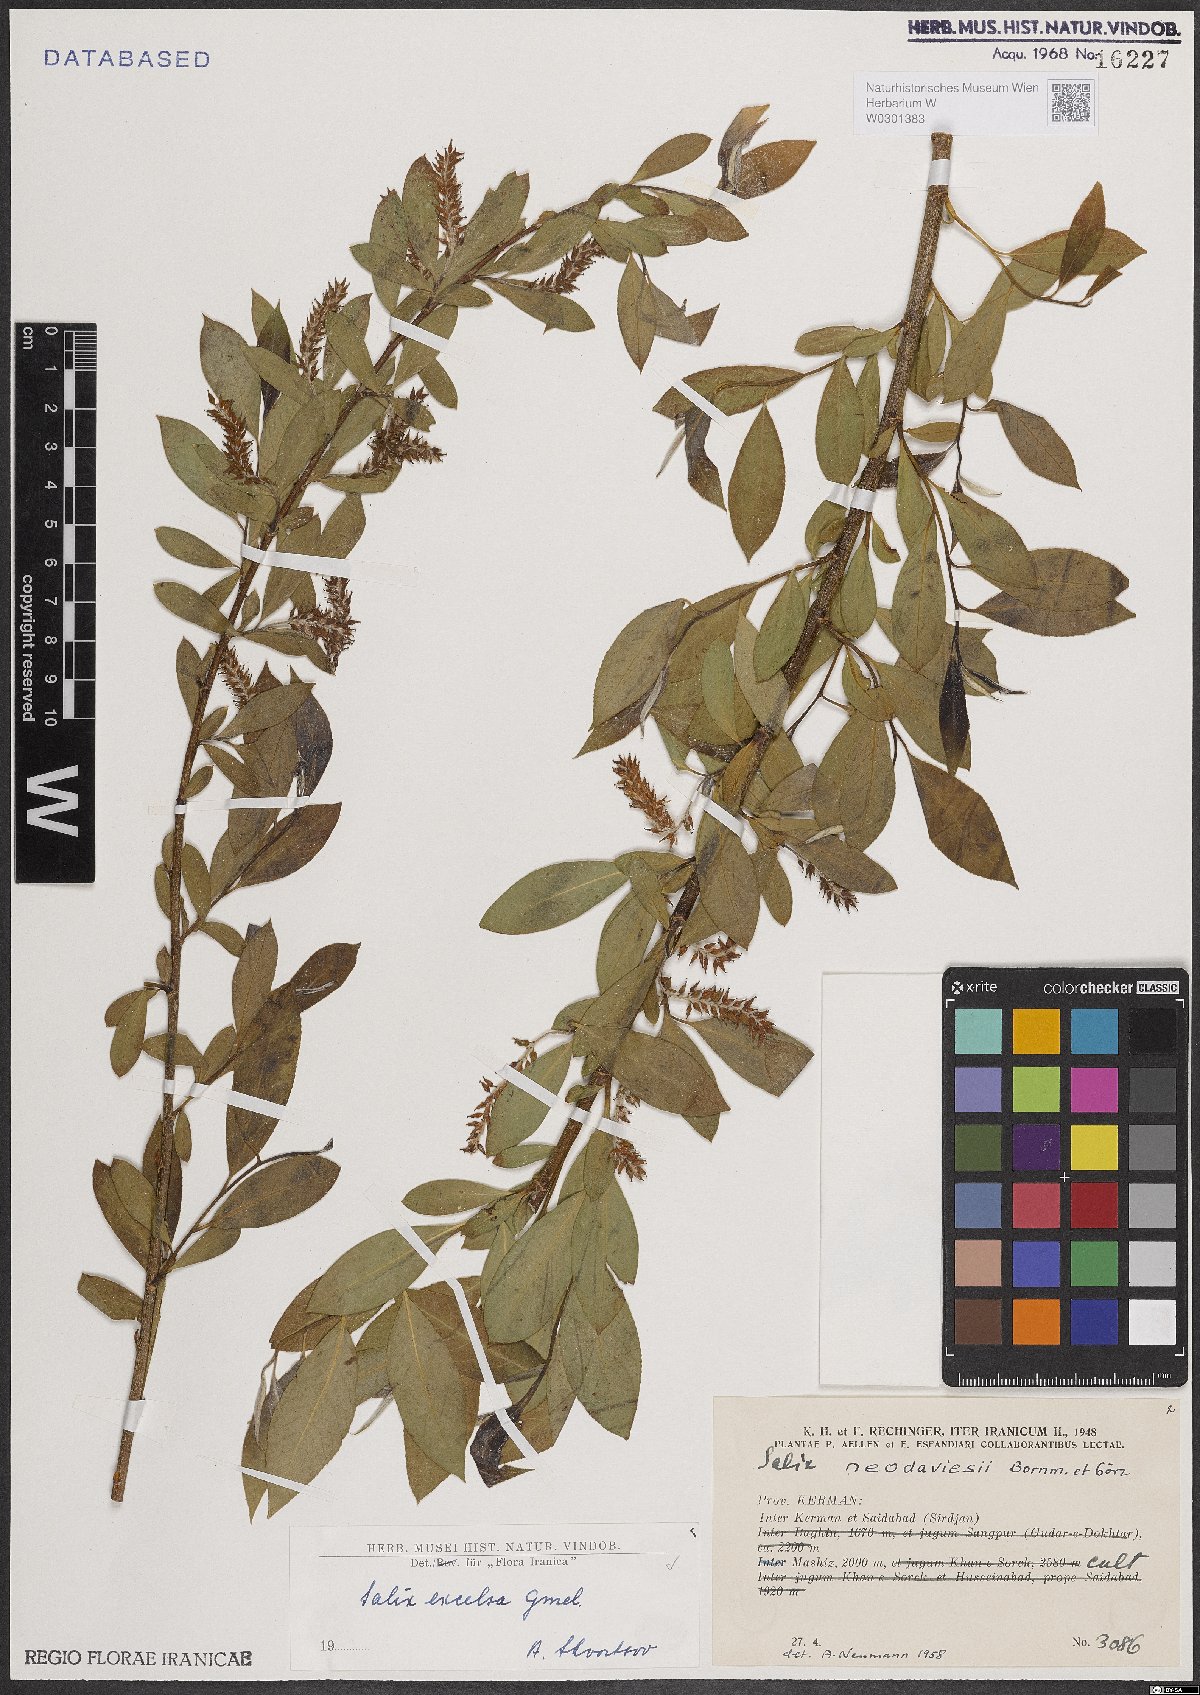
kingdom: Plantae
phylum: Tracheophyta
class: Magnoliopsida
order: Malpighiales
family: Salicaceae
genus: Salix
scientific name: Salix excelsa
